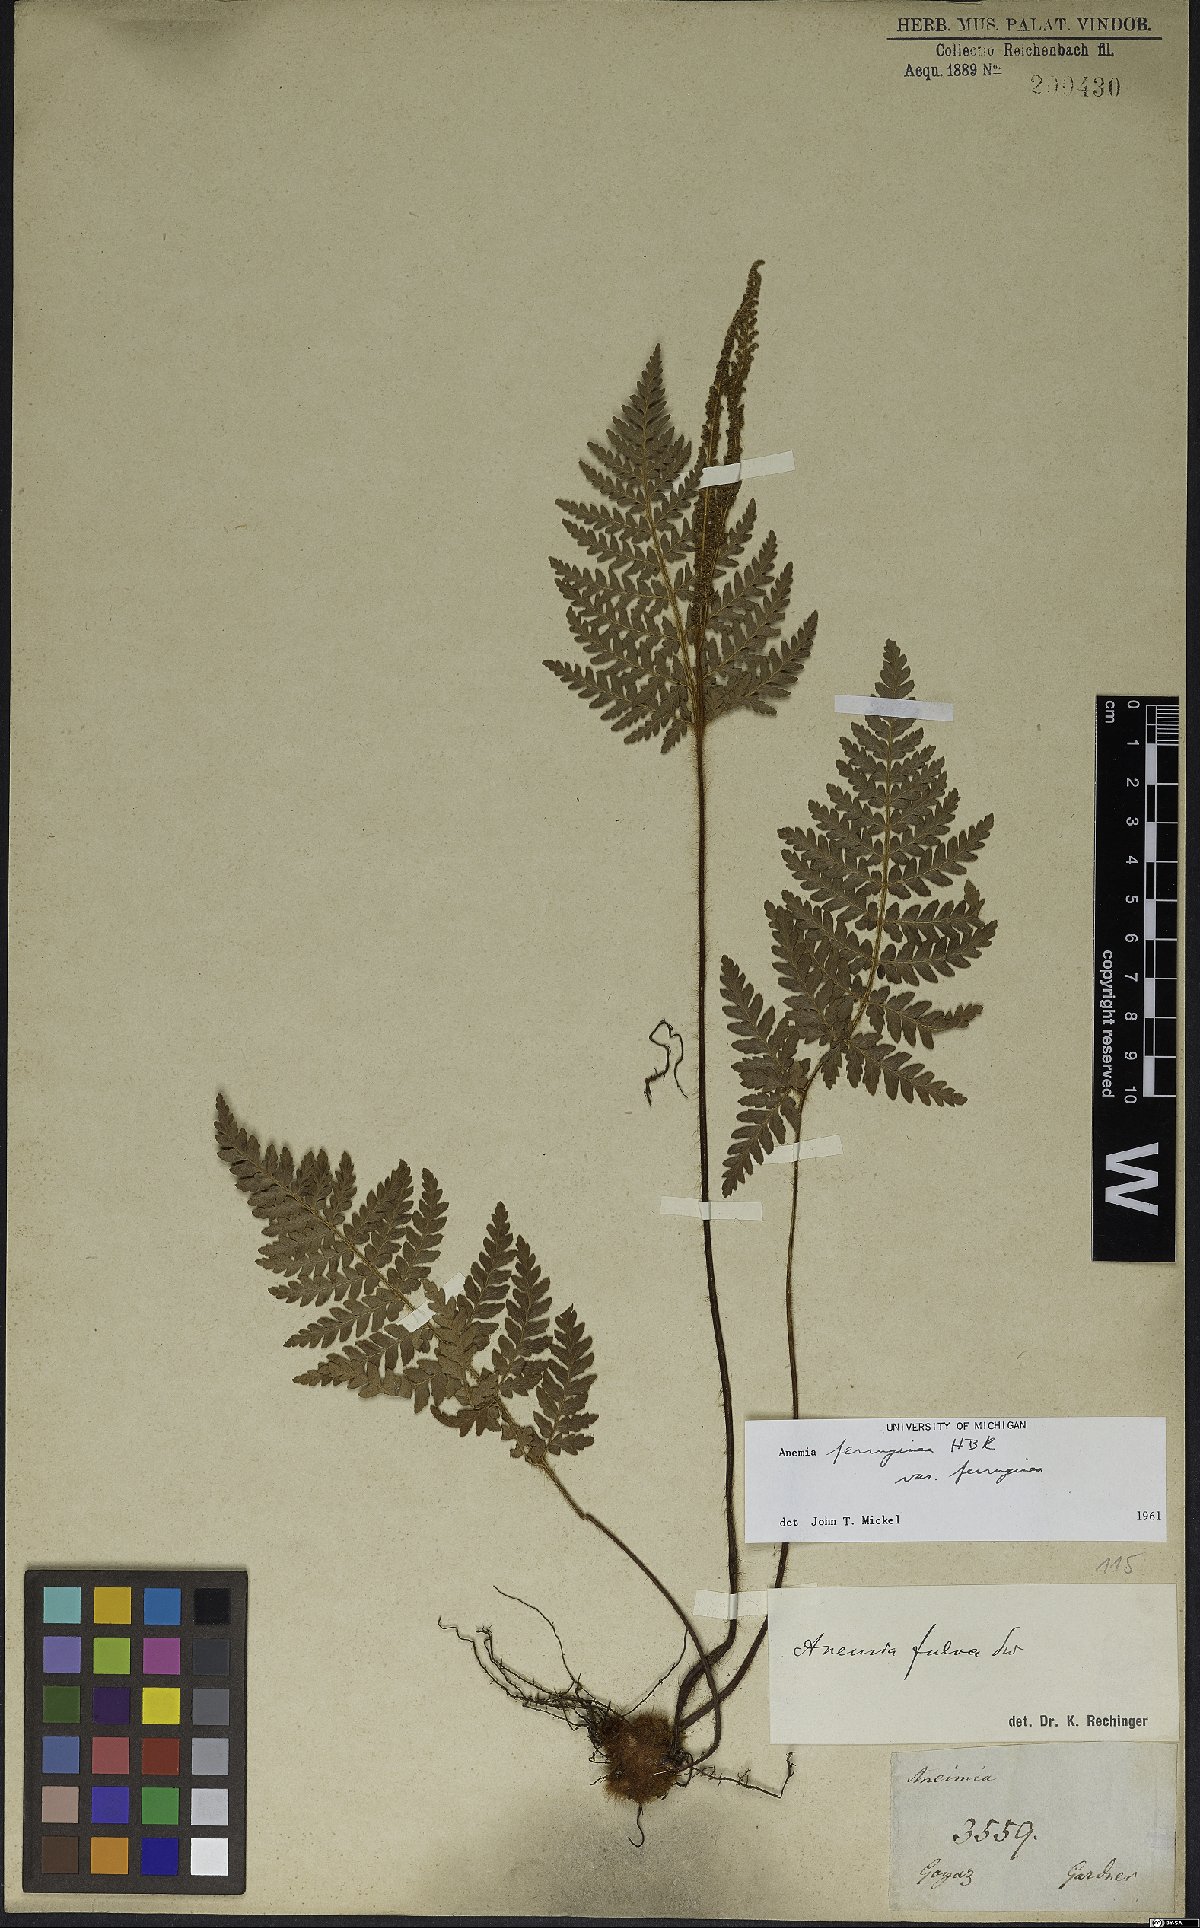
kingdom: Plantae
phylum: Tracheophyta
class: Polypodiopsida
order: Schizaeales
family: Anemiaceae
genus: Anemia
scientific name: Anemia ferruginea
